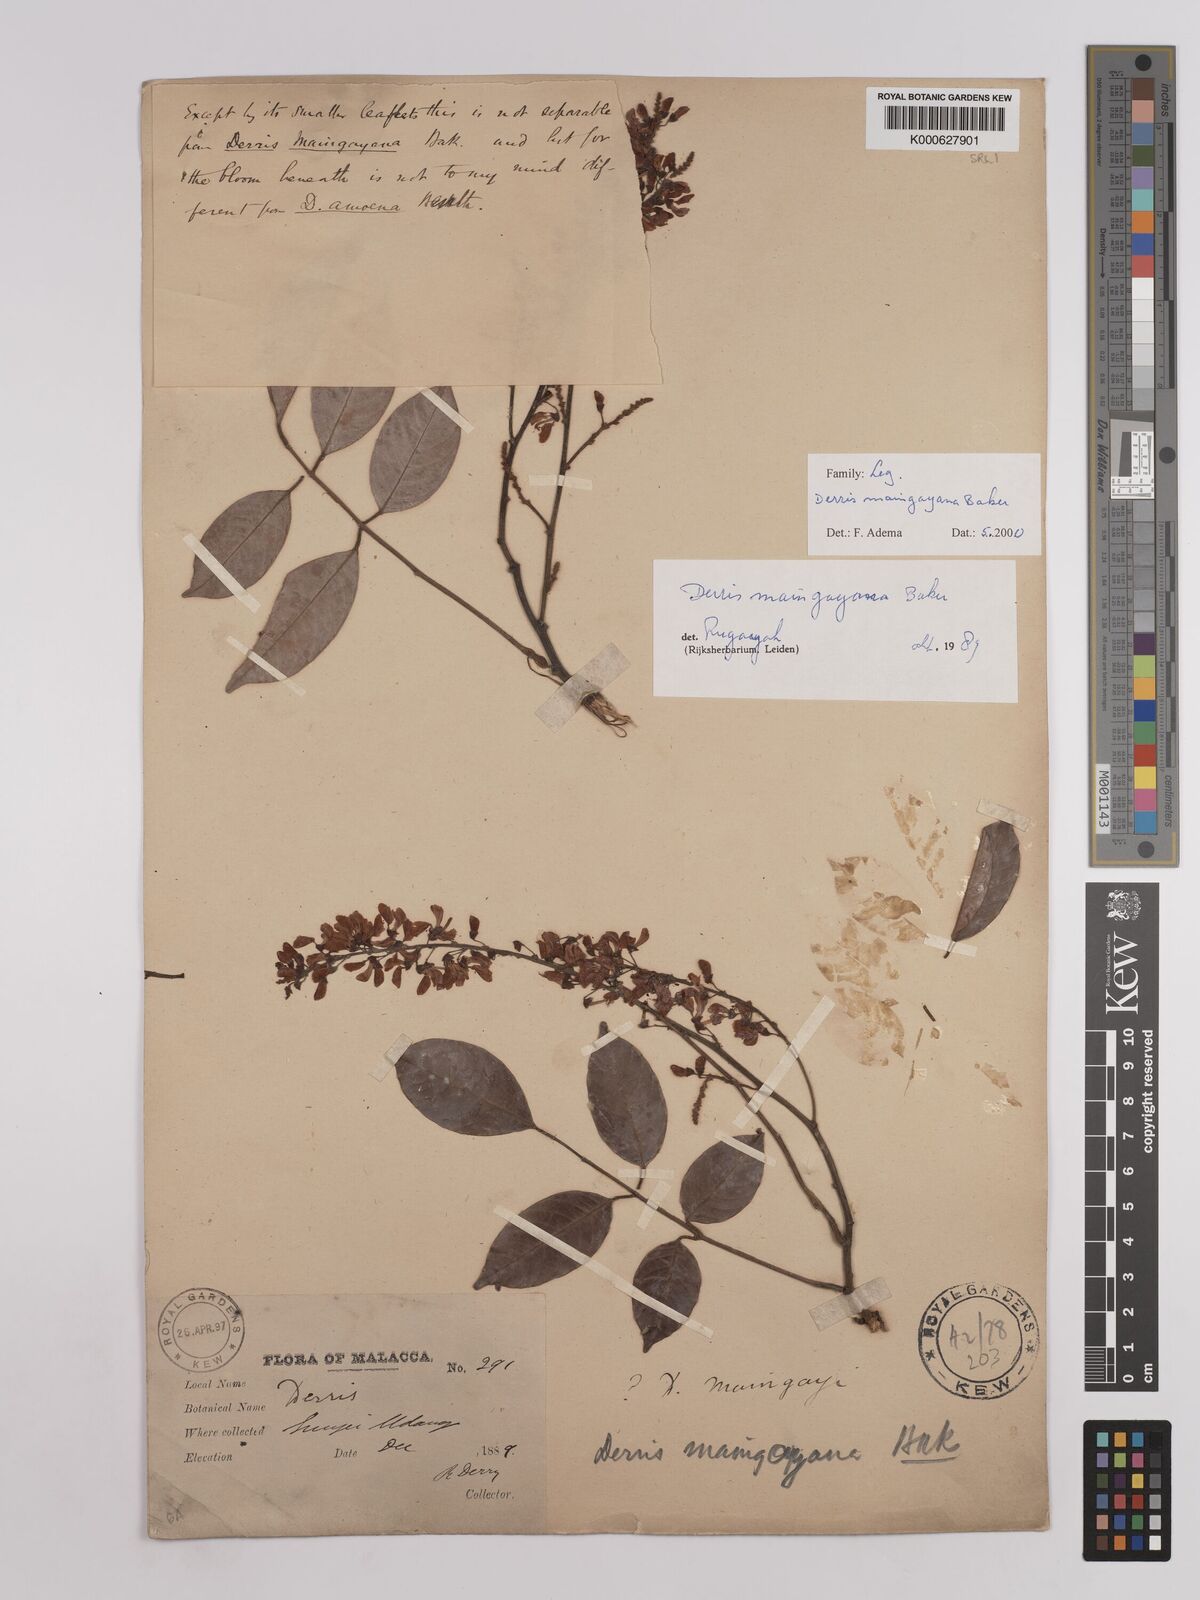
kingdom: Plantae
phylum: Tracheophyta
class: Magnoliopsida
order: Fabales
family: Fabaceae
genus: Derris
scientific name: Derris amoena
